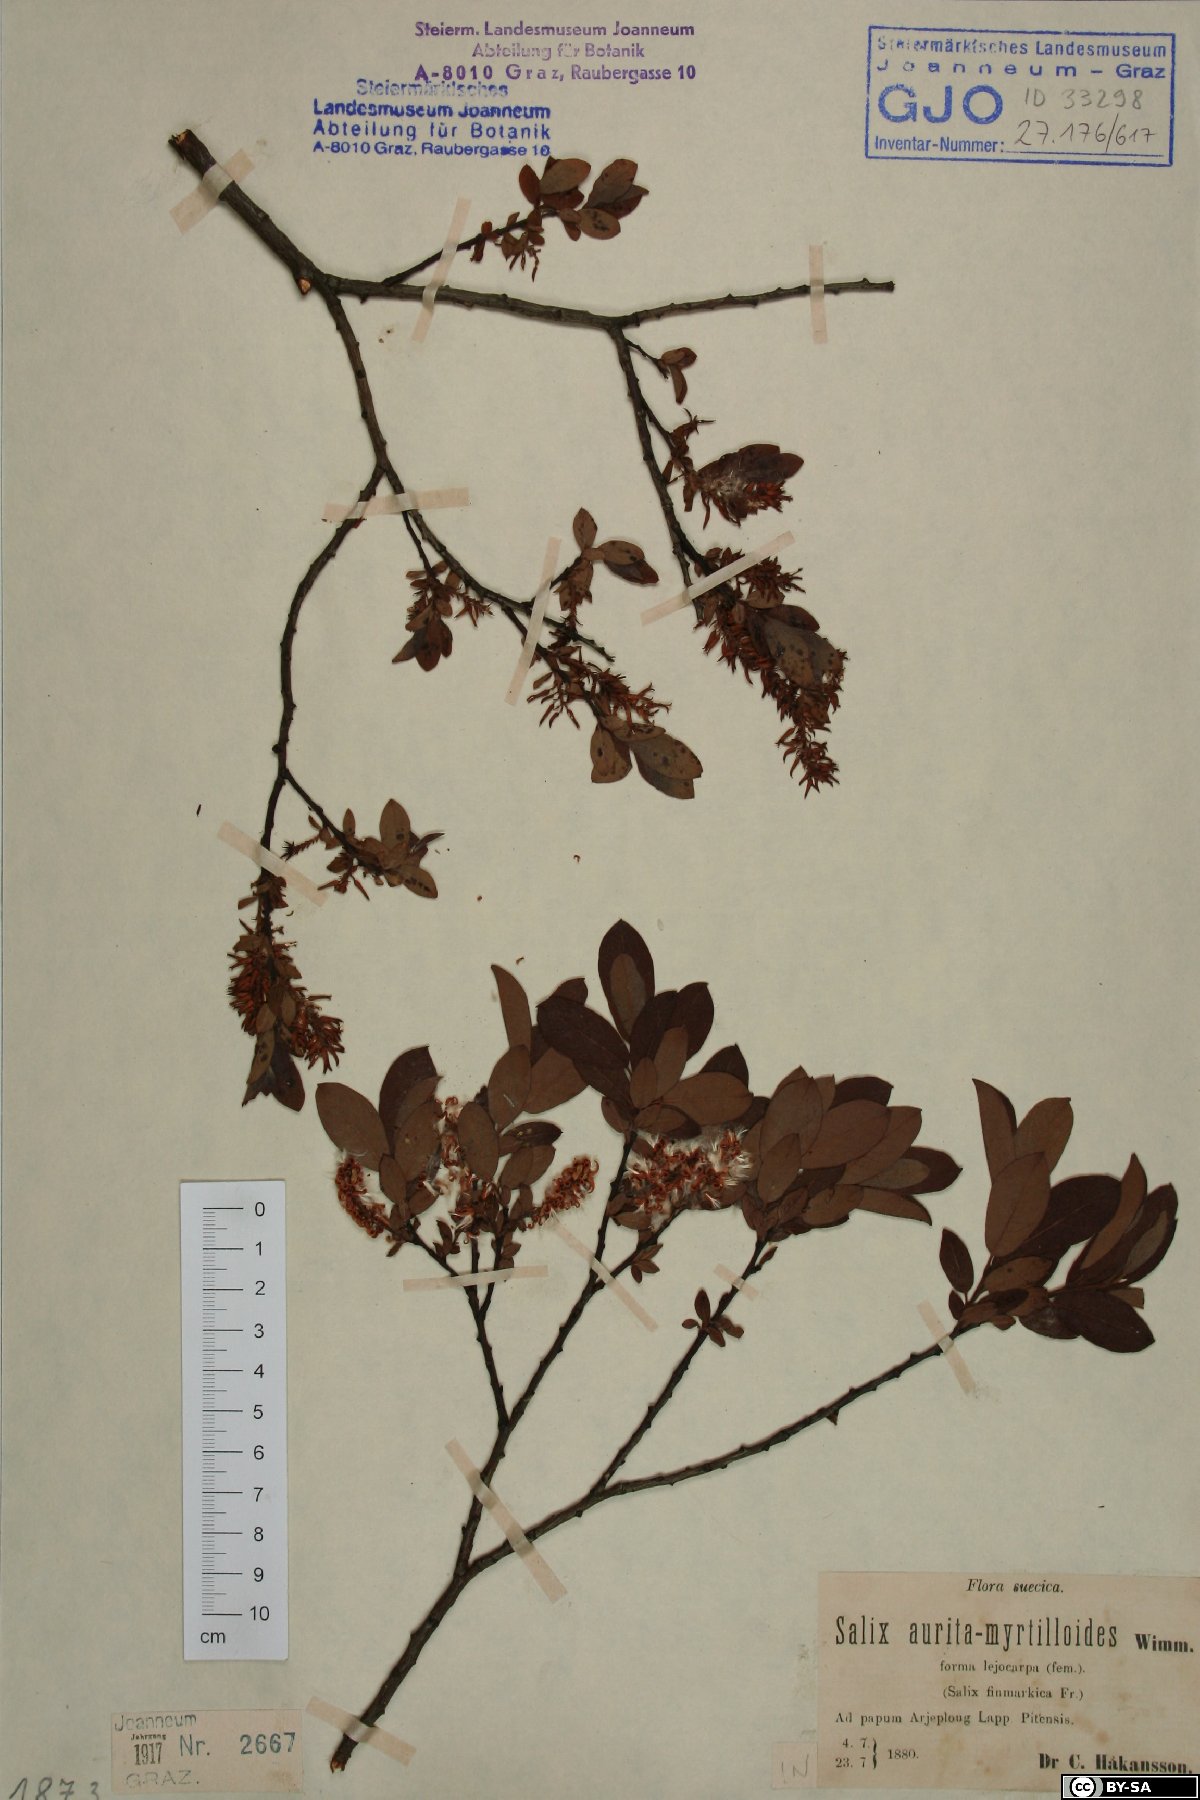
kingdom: Plantae
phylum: Tracheophyta
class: Magnoliopsida
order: Malpighiales
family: Salicaceae
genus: Salix
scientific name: Salix aurita
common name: Eared willow
